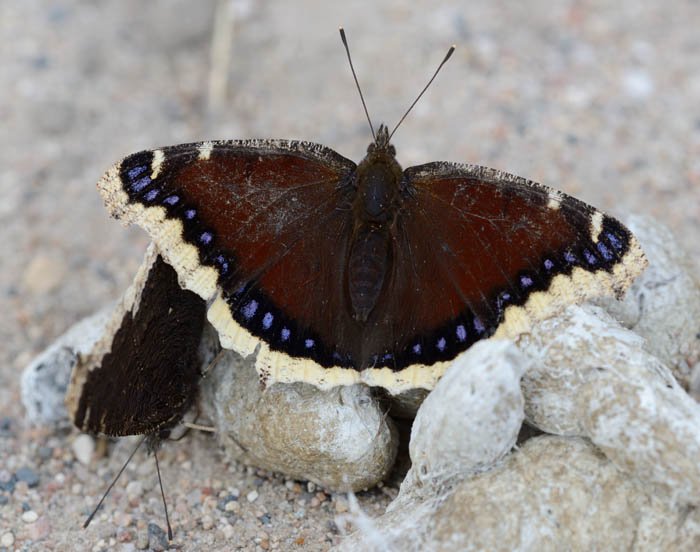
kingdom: Animalia
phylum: Arthropoda
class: Insecta
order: Lepidoptera
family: Nymphalidae
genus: Nymphalis
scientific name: Nymphalis antiopa
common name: Mourning Cloak
